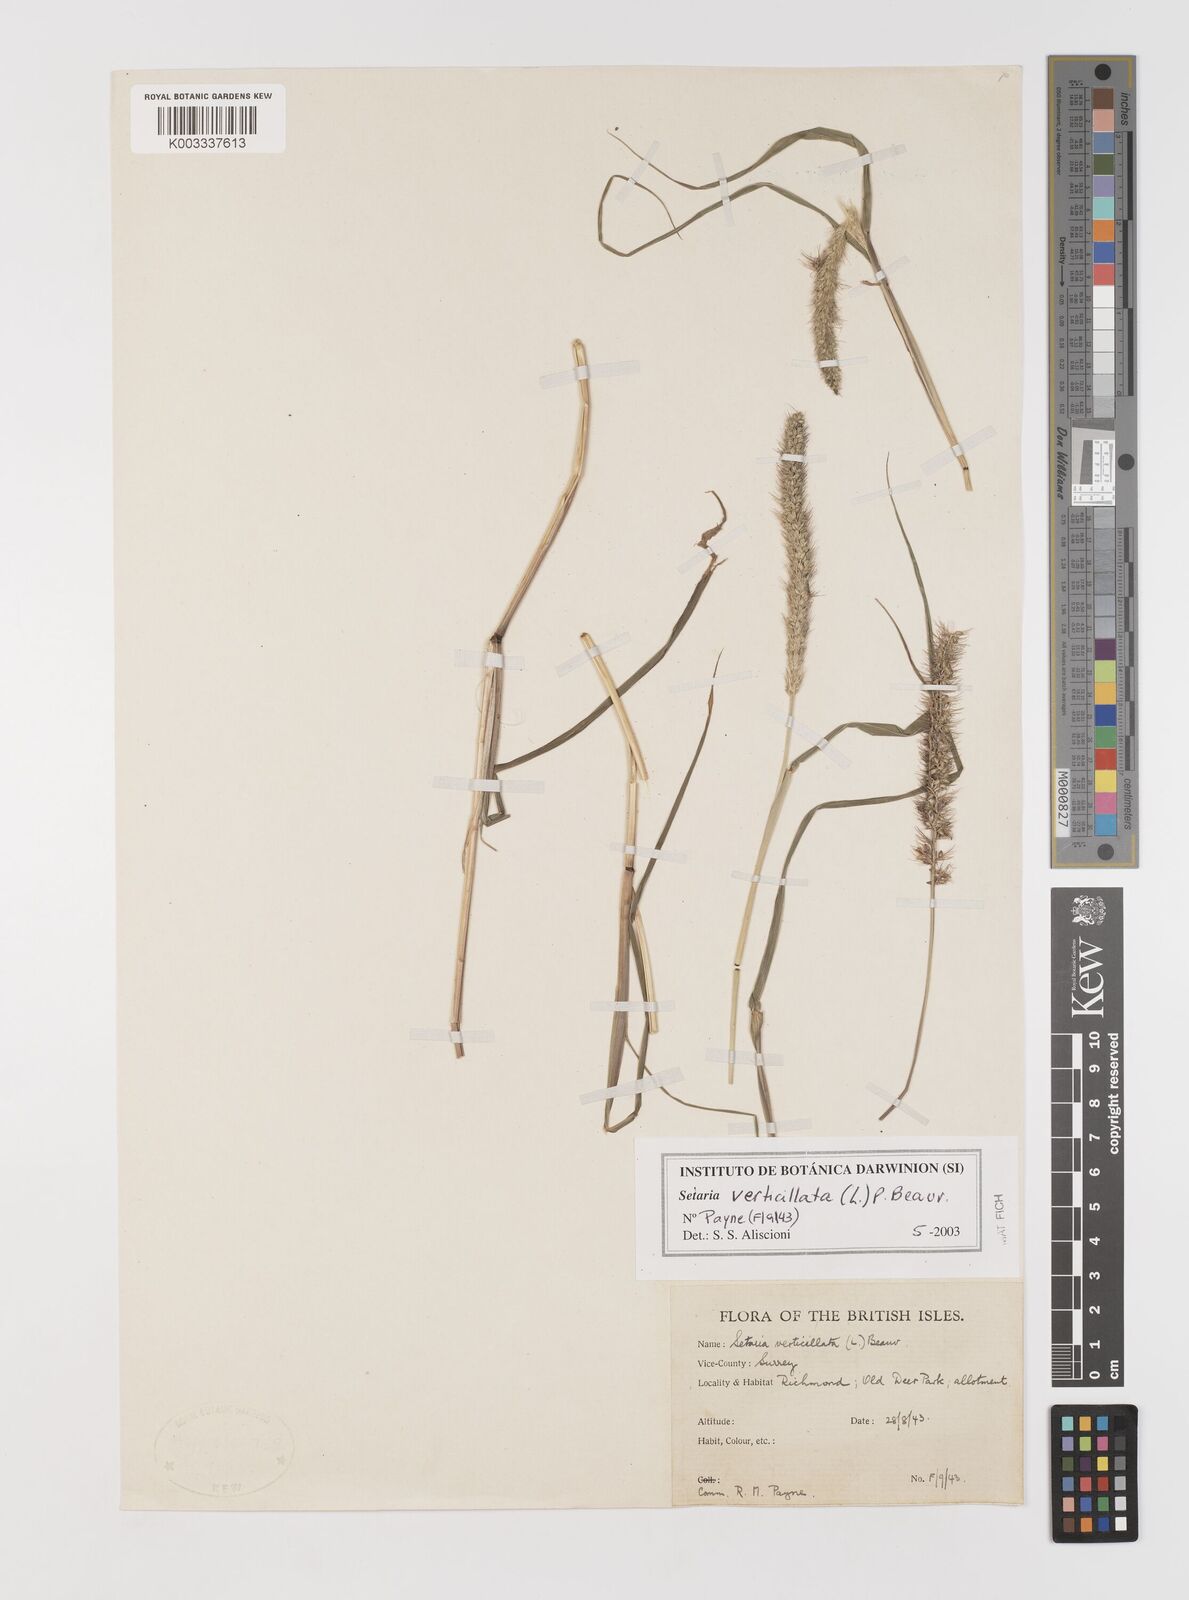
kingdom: Plantae
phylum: Tracheophyta
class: Liliopsida
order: Poales
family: Poaceae
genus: Setaria
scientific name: Setaria verticillata
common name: Hooked bristlegrass
